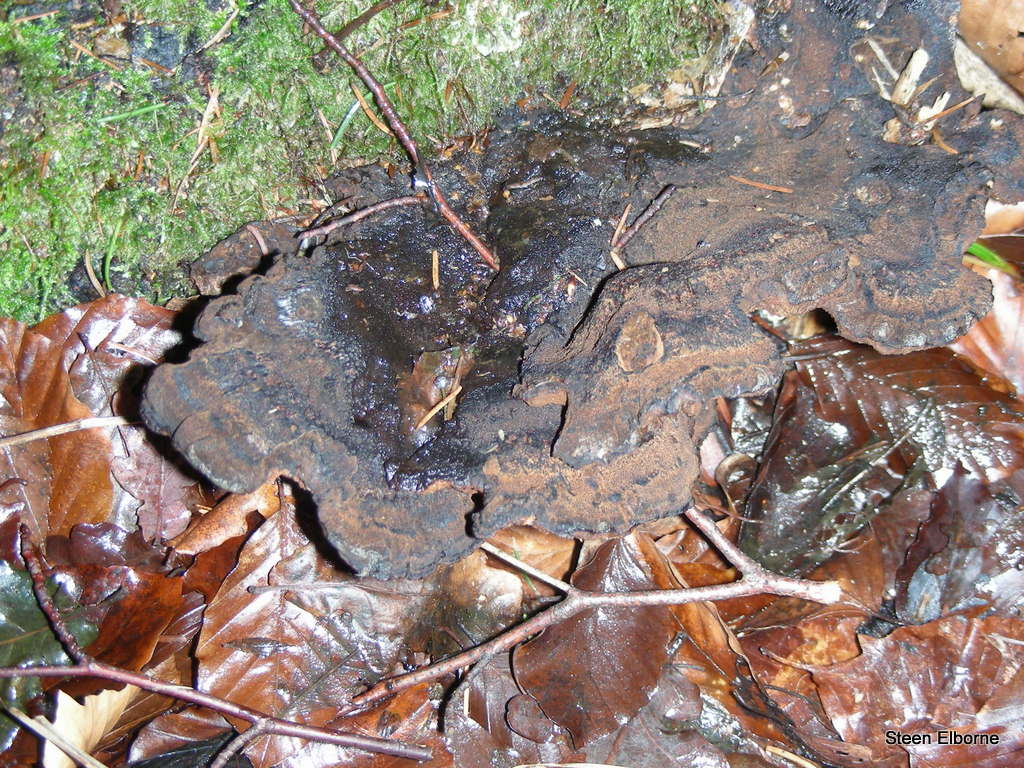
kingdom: Fungi
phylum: Basidiomycota
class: Agaricomycetes
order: Polyporales
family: Ischnodermataceae
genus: Ischnoderma
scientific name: Ischnoderma benzoinum
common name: gran-tjæreporesvamp
